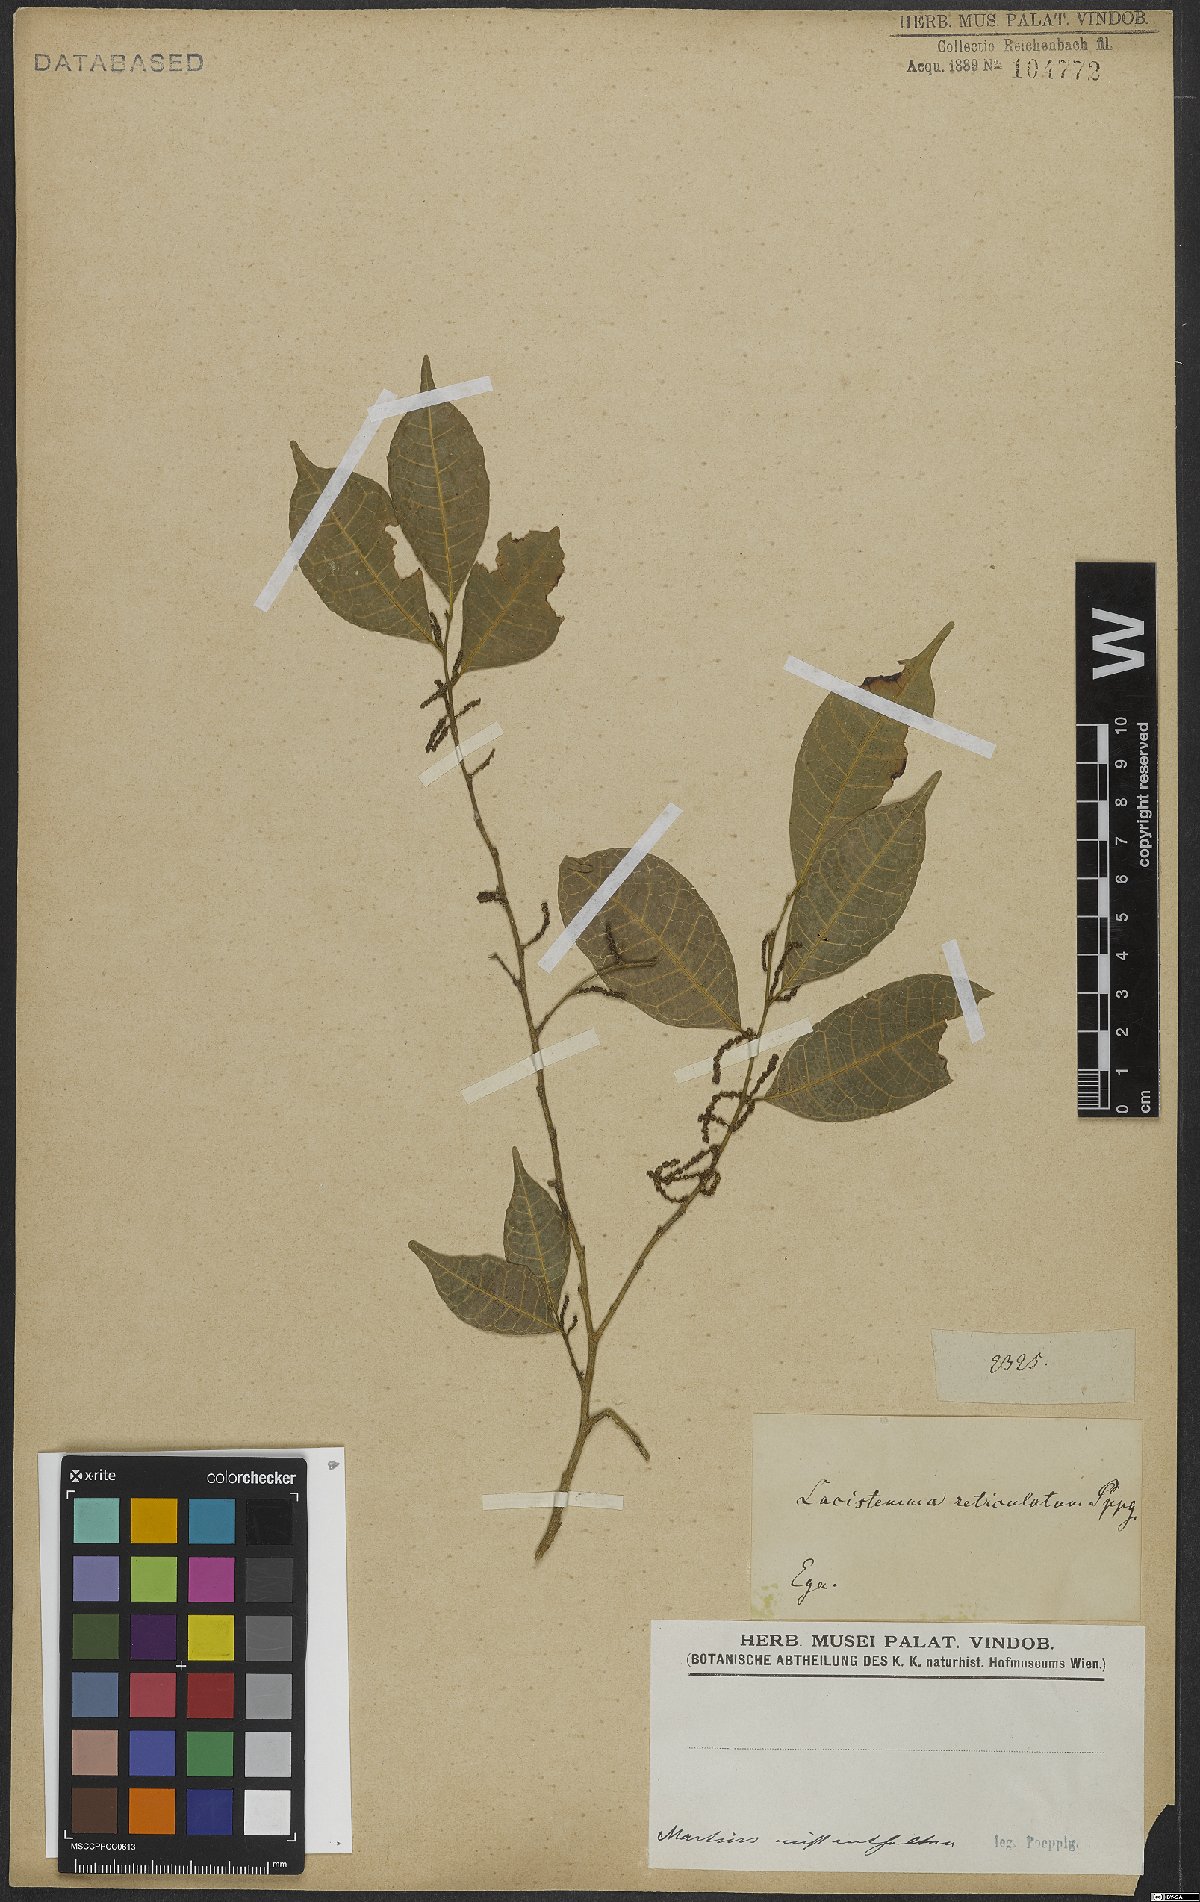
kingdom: Plantae
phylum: Tracheophyta
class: Magnoliopsida
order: Malpighiales
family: Lacistemataceae
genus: Lacistema
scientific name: Lacistema
